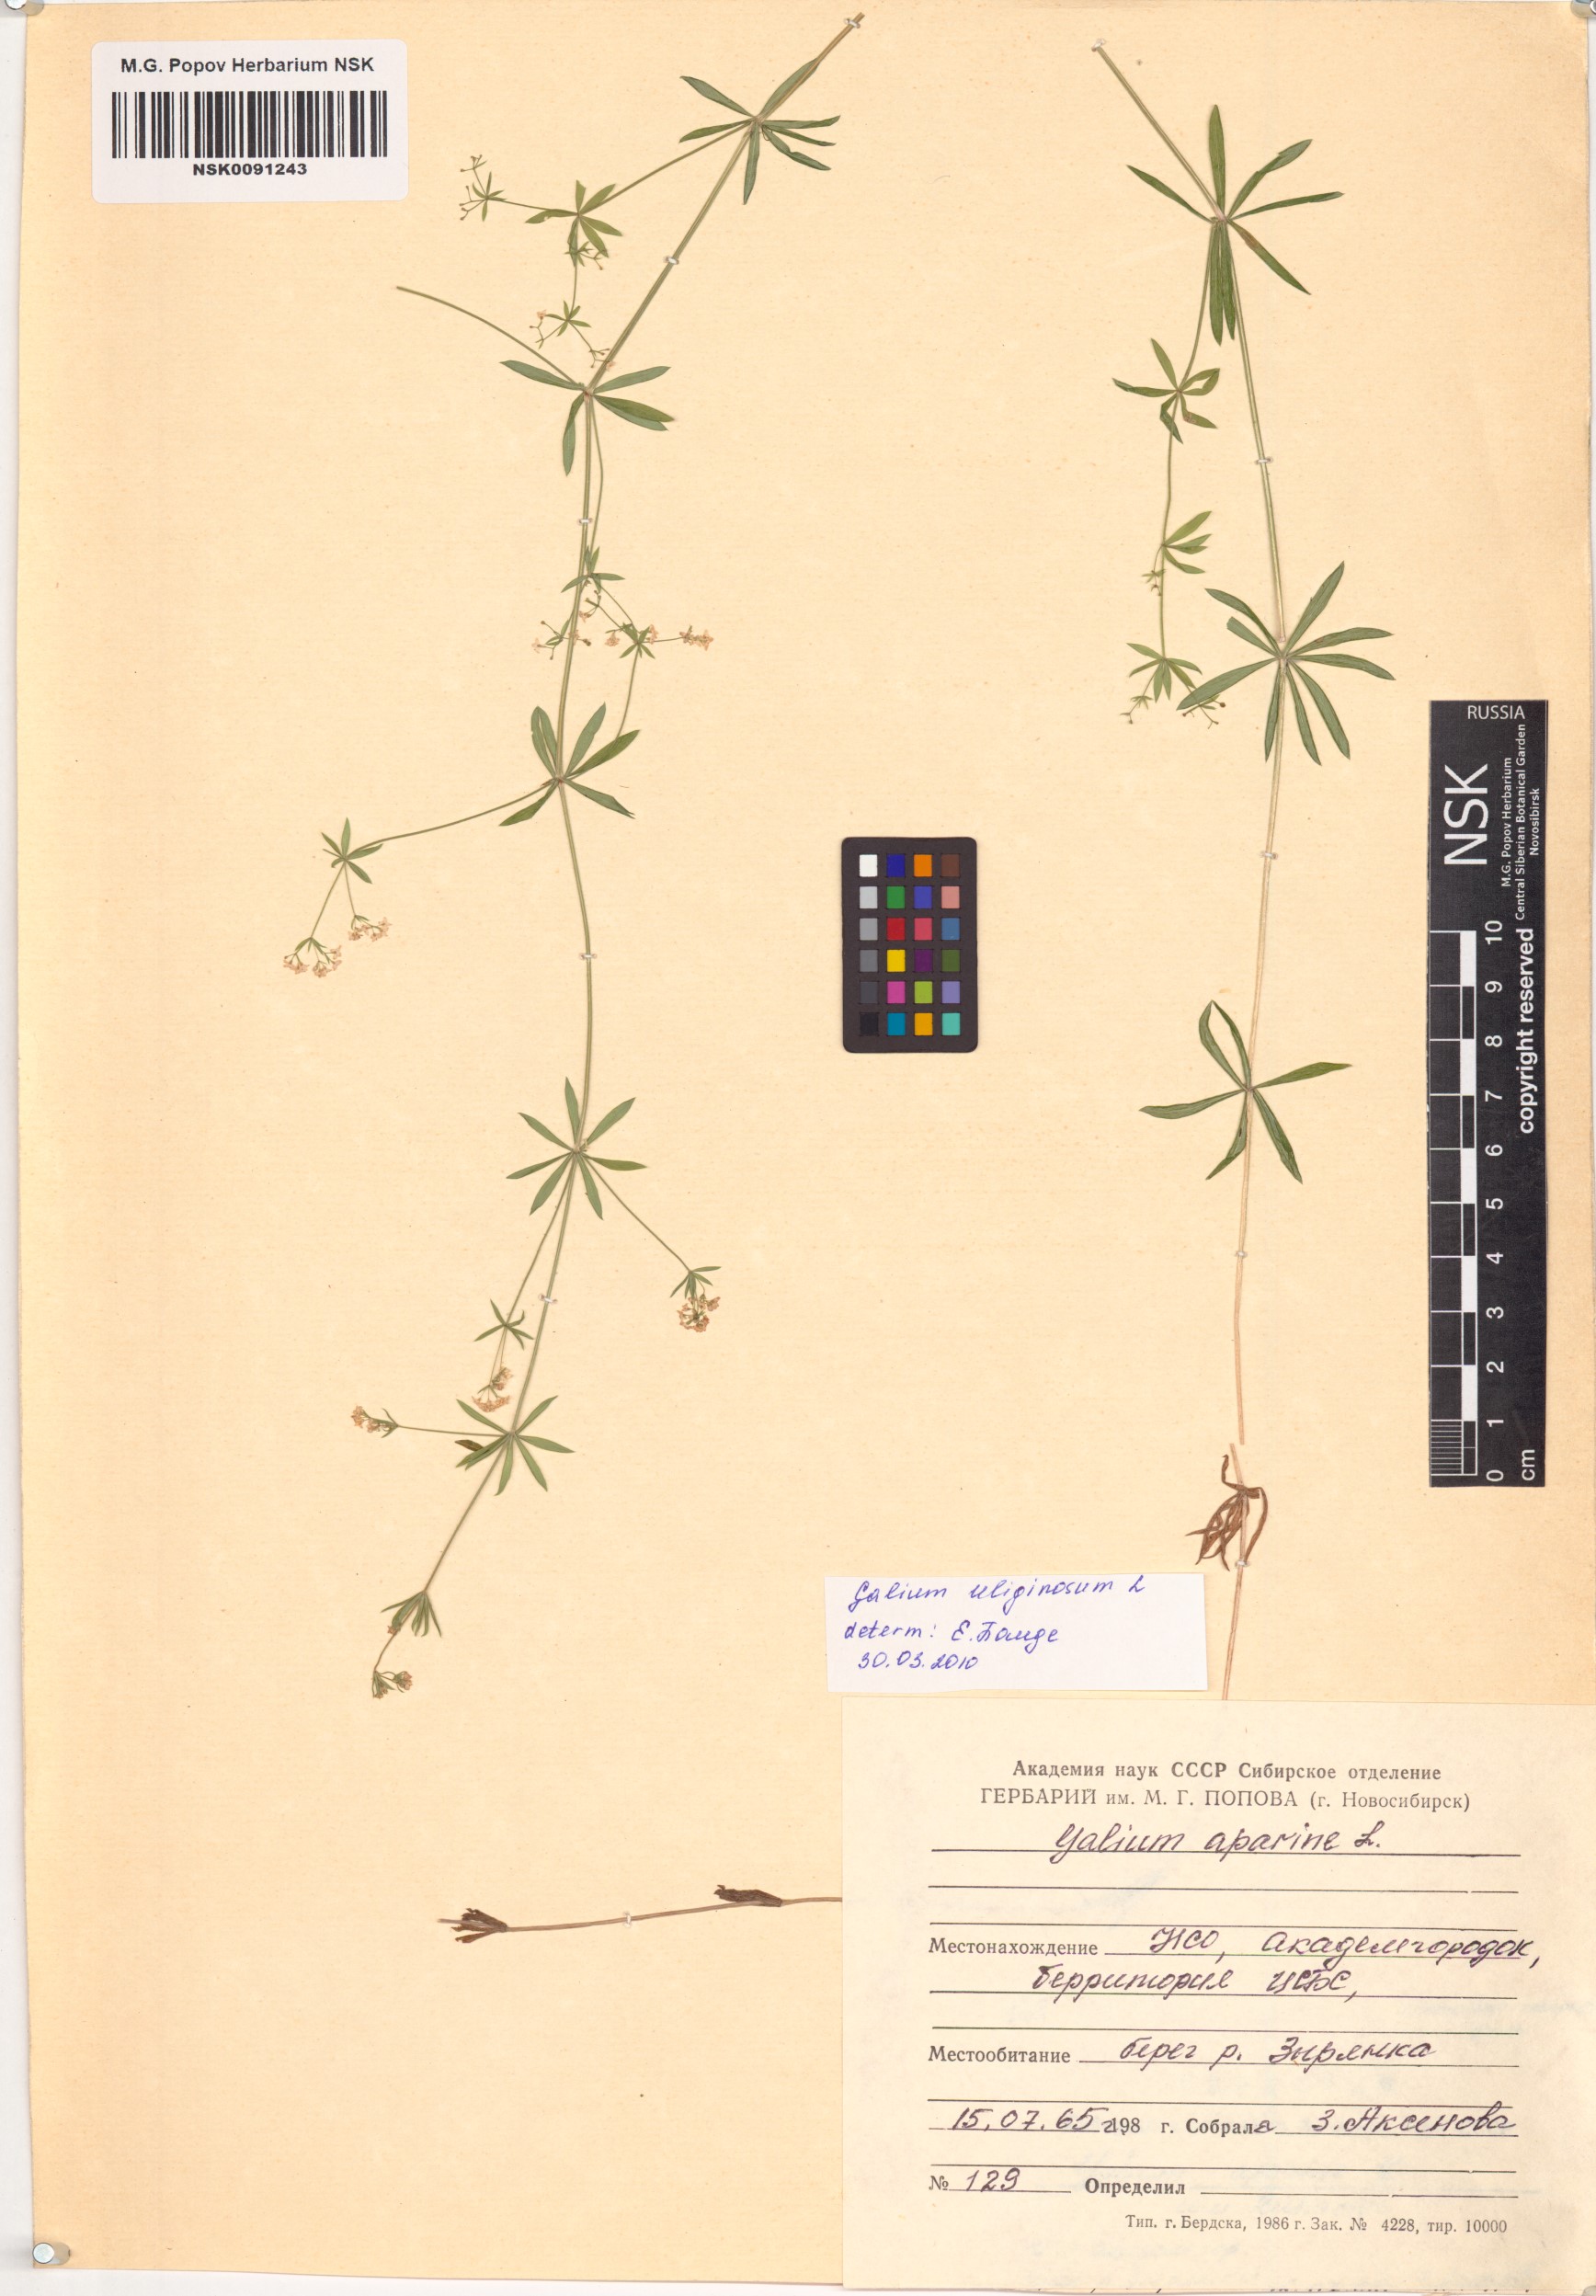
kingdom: Plantae
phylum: Tracheophyta
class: Magnoliopsida
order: Gentianales
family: Rubiaceae
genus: Galium
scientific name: Galium uliginosum
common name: Fen bedstraw
